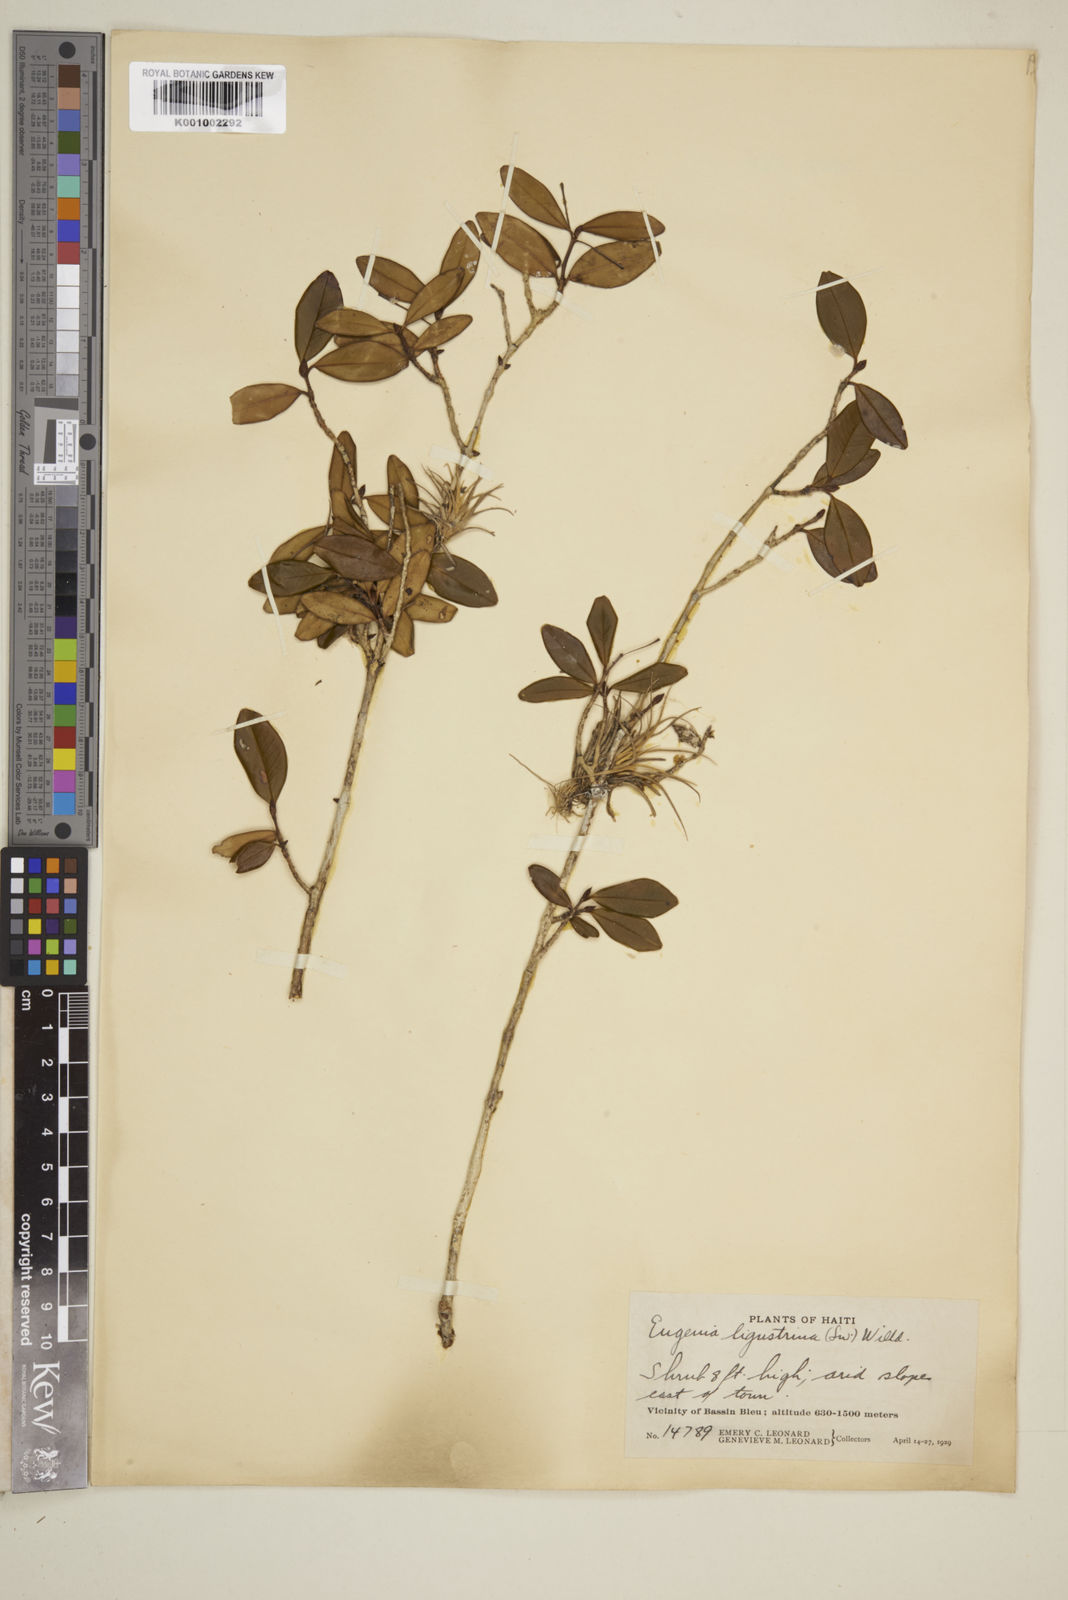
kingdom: Plantae
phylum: Tracheophyta
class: Magnoliopsida
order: Myrtales
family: Myrtaceae
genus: Eugenia
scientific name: Eugenia ligustrina
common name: Privet stopper
